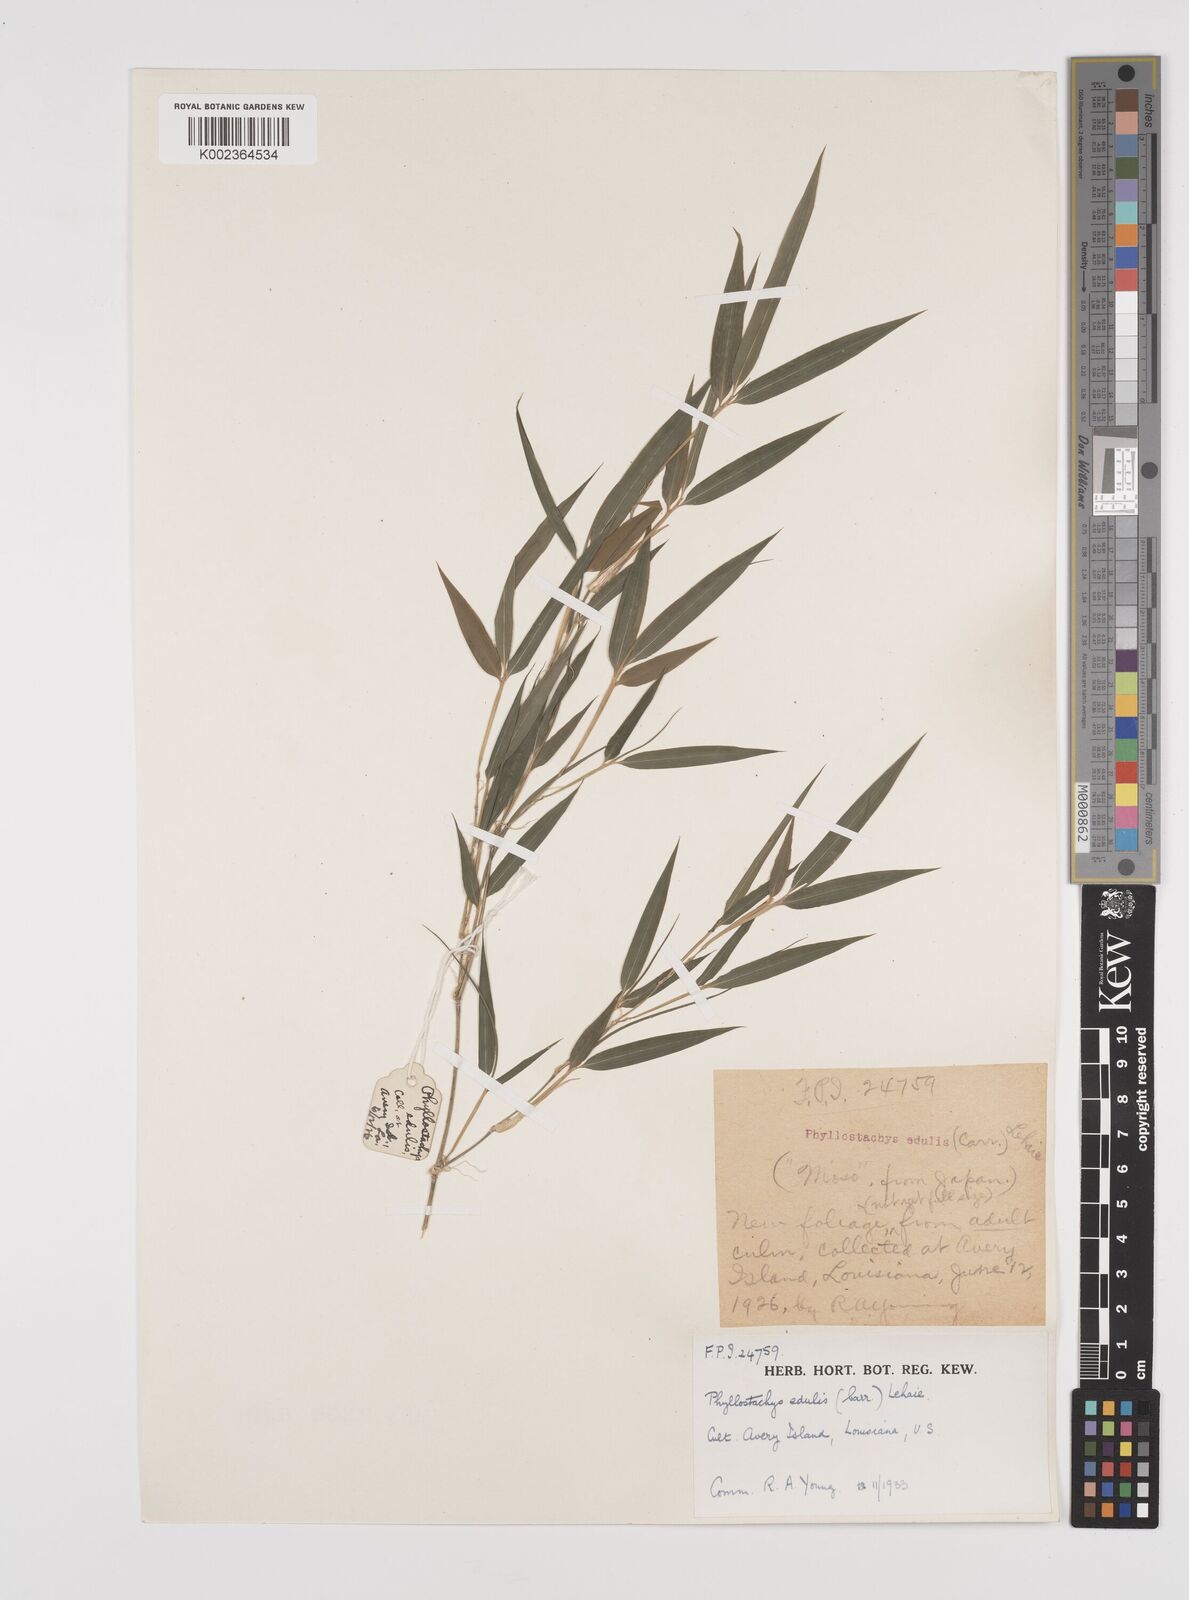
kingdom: Plantae
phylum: Tracheophyta
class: Liliopsida
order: Poales
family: Poaceae
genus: Phyllostachys
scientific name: Phyllostachys edulis
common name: Tortoise shell bamboo
